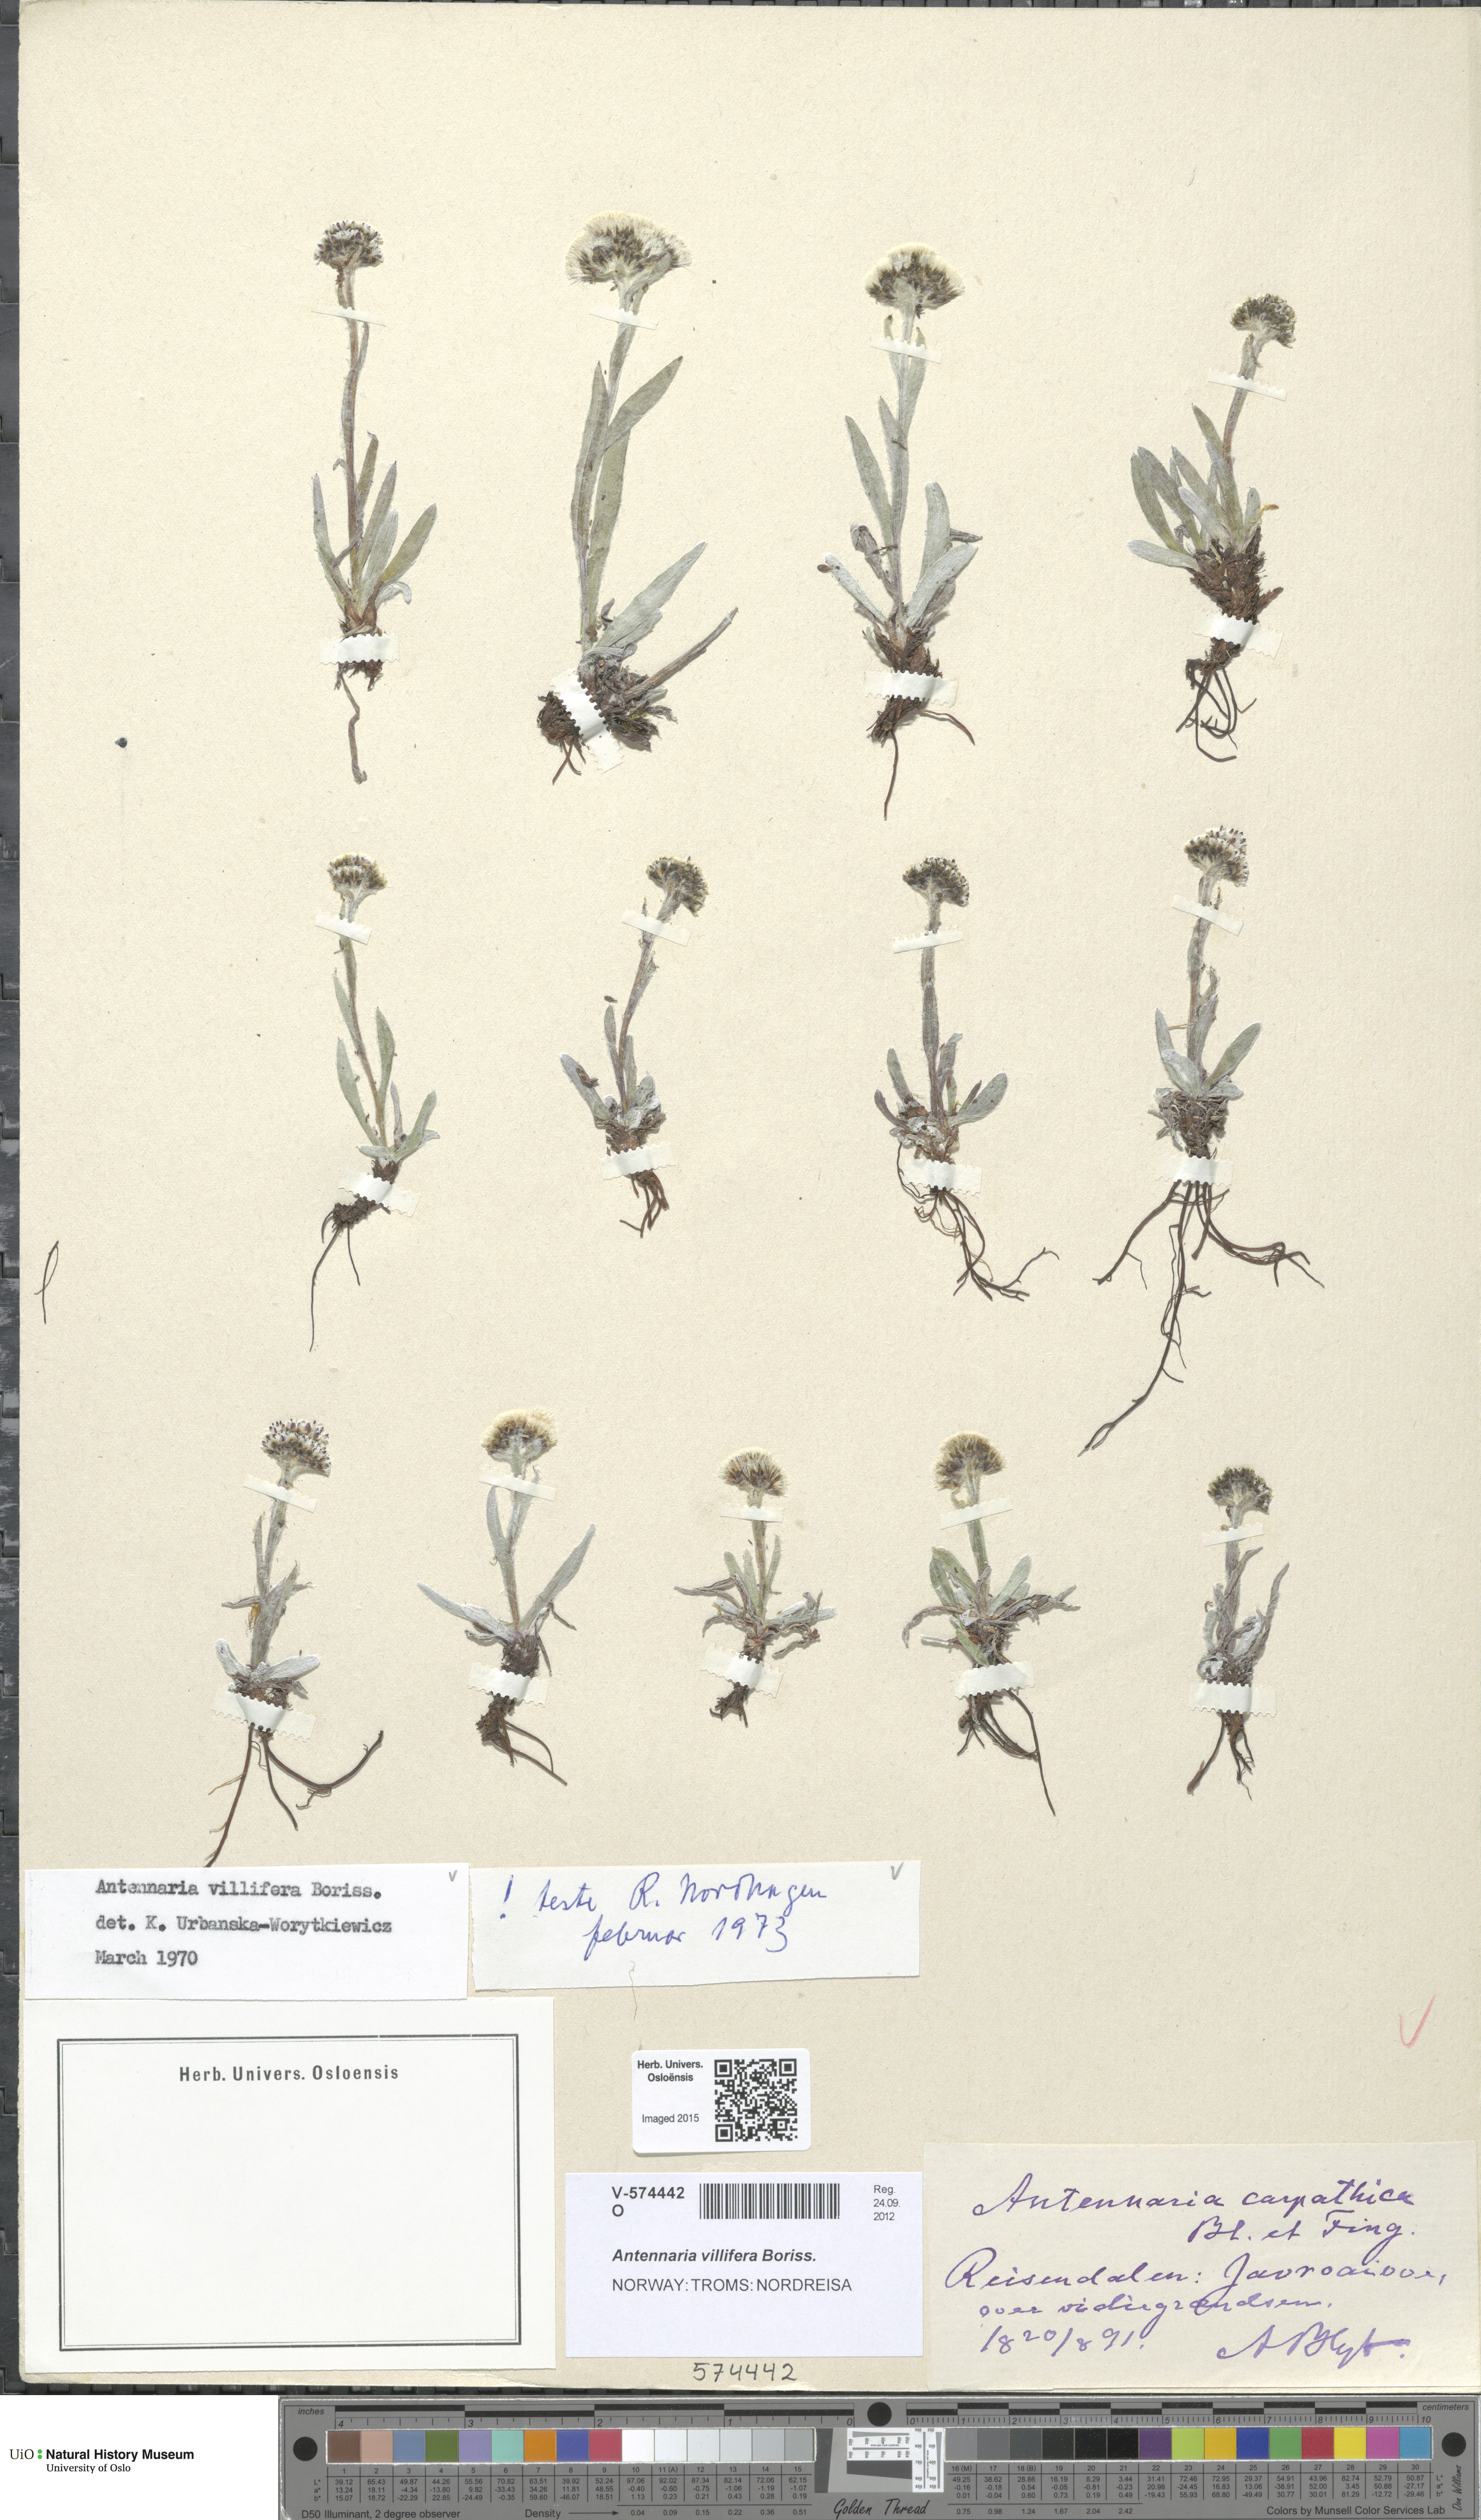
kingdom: Plantae
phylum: Tracheophyta
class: Magnoliopsida
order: Asterales
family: Asteraceae
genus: Antennaria
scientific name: Antennaria lanata
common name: Woolly pussytoes
